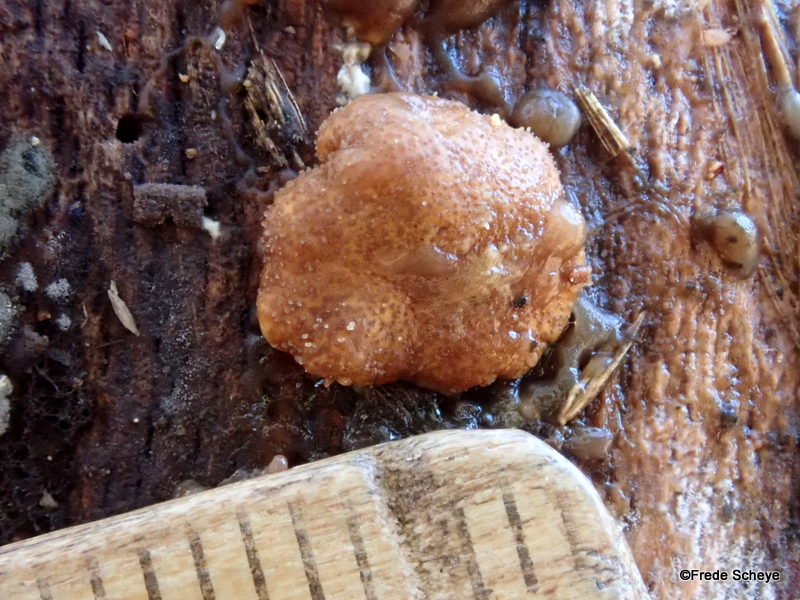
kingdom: Fungi
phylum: Ascomycota
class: Sordariomycetes
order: Hypocreales
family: Hypocreaceae
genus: Trichoderma
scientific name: Trichoderma europaeum
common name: rosabrun kødkerne
